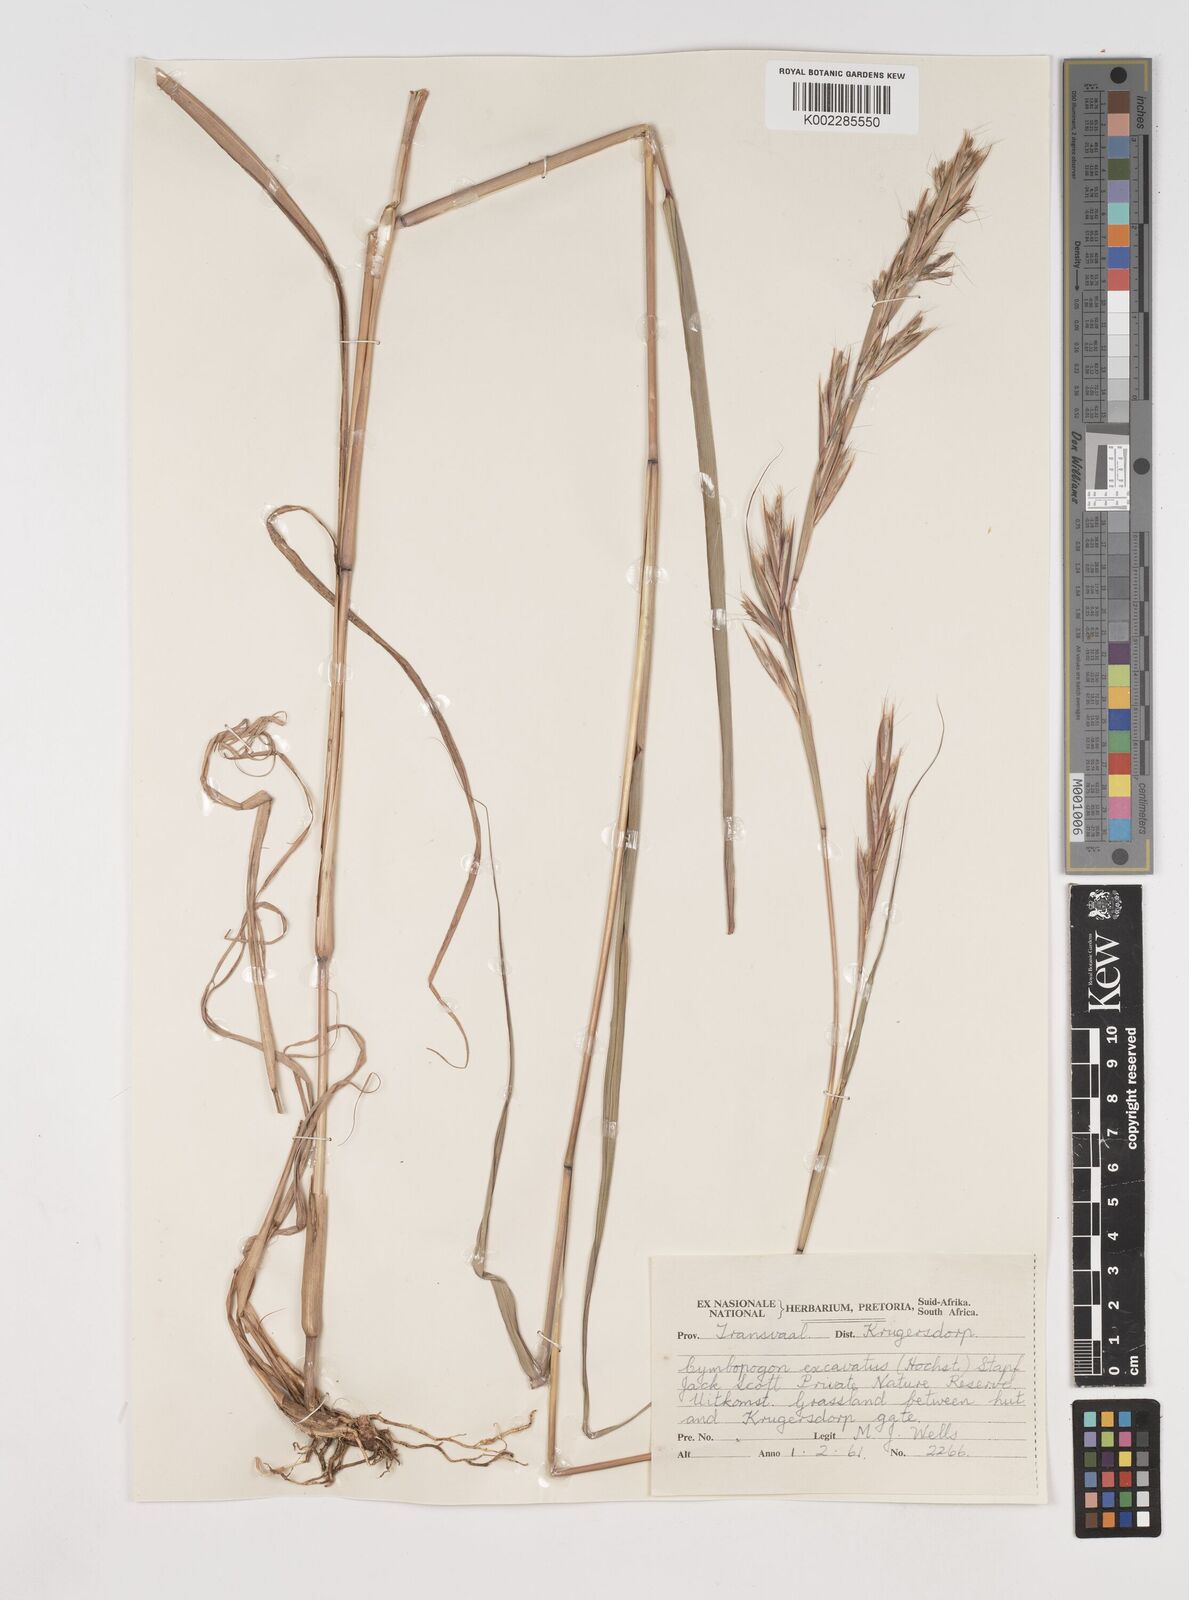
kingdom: Plantae
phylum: Tracheophyta
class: Liliopsida
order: Poales
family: Poaceae
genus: Cymbopogon
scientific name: Cymbopogon caesius
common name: Kachi grass
